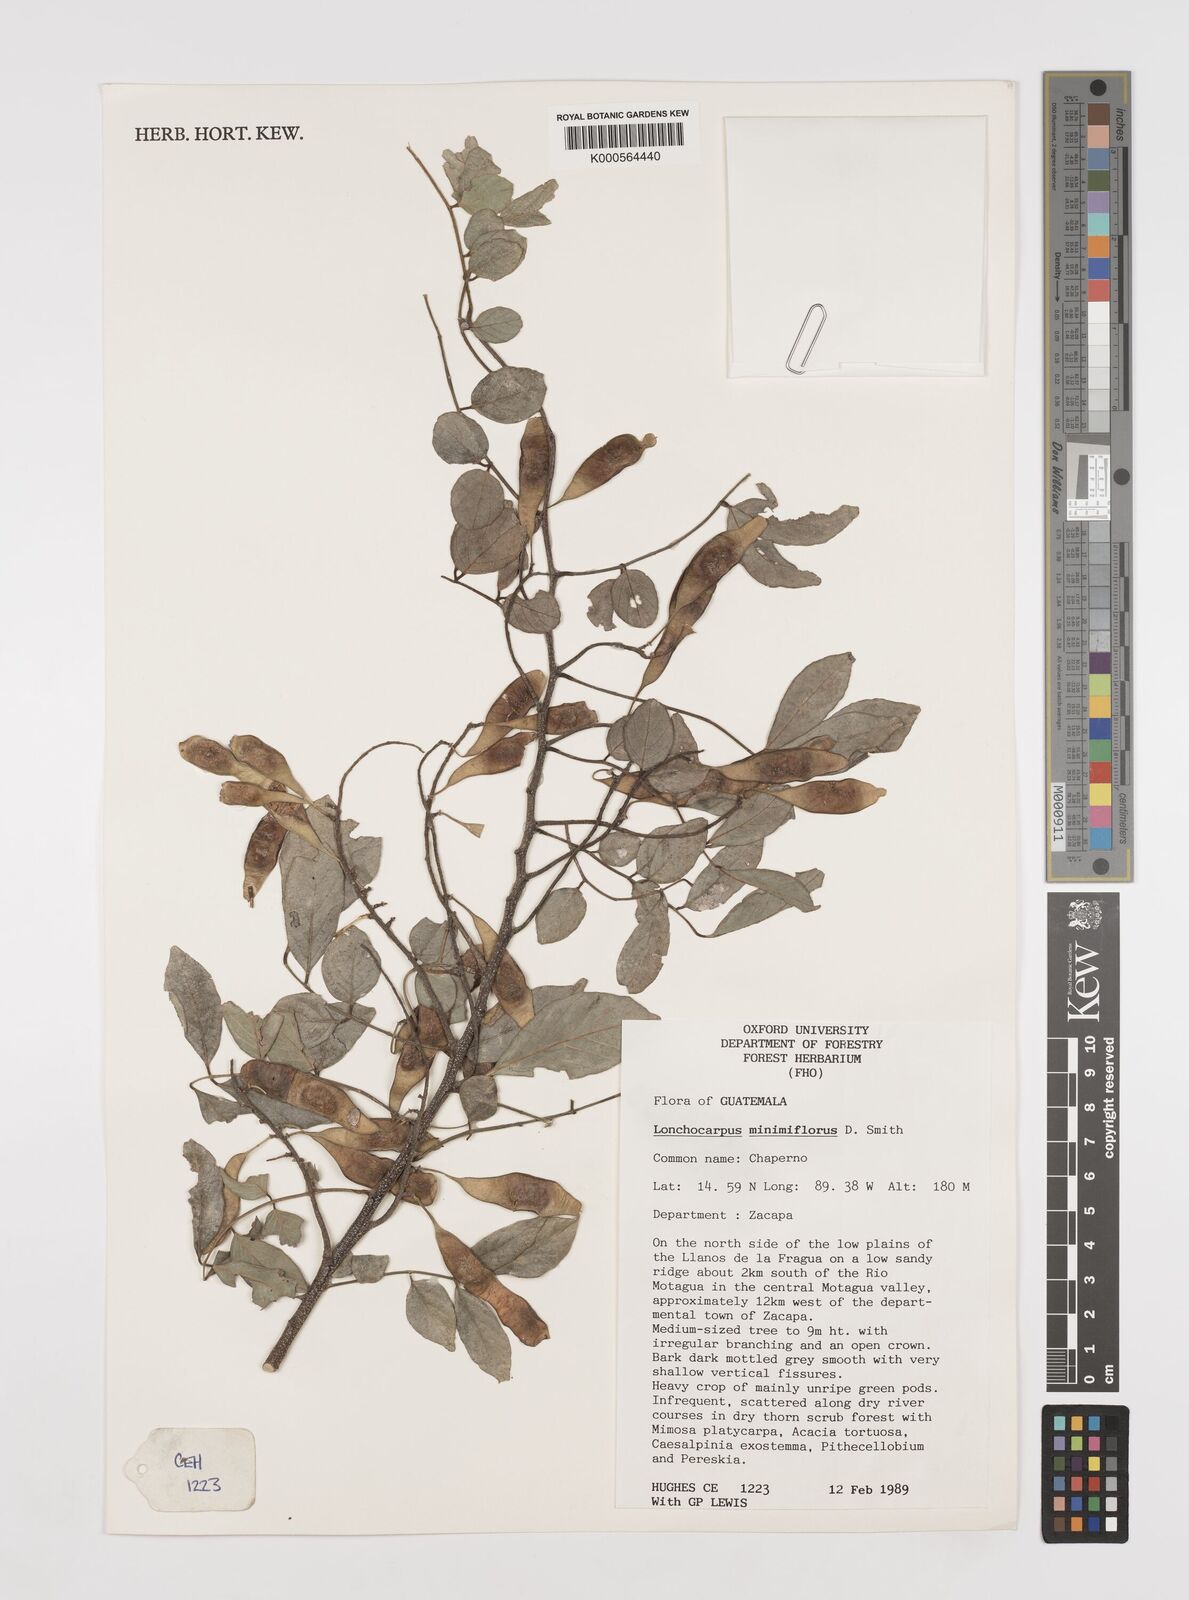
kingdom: Plantae
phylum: Tracheophyta
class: Magnoliopsida
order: Fabales
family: Fabaceae
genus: Lonchocarpus
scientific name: Lonchocarpus minimiflorus
